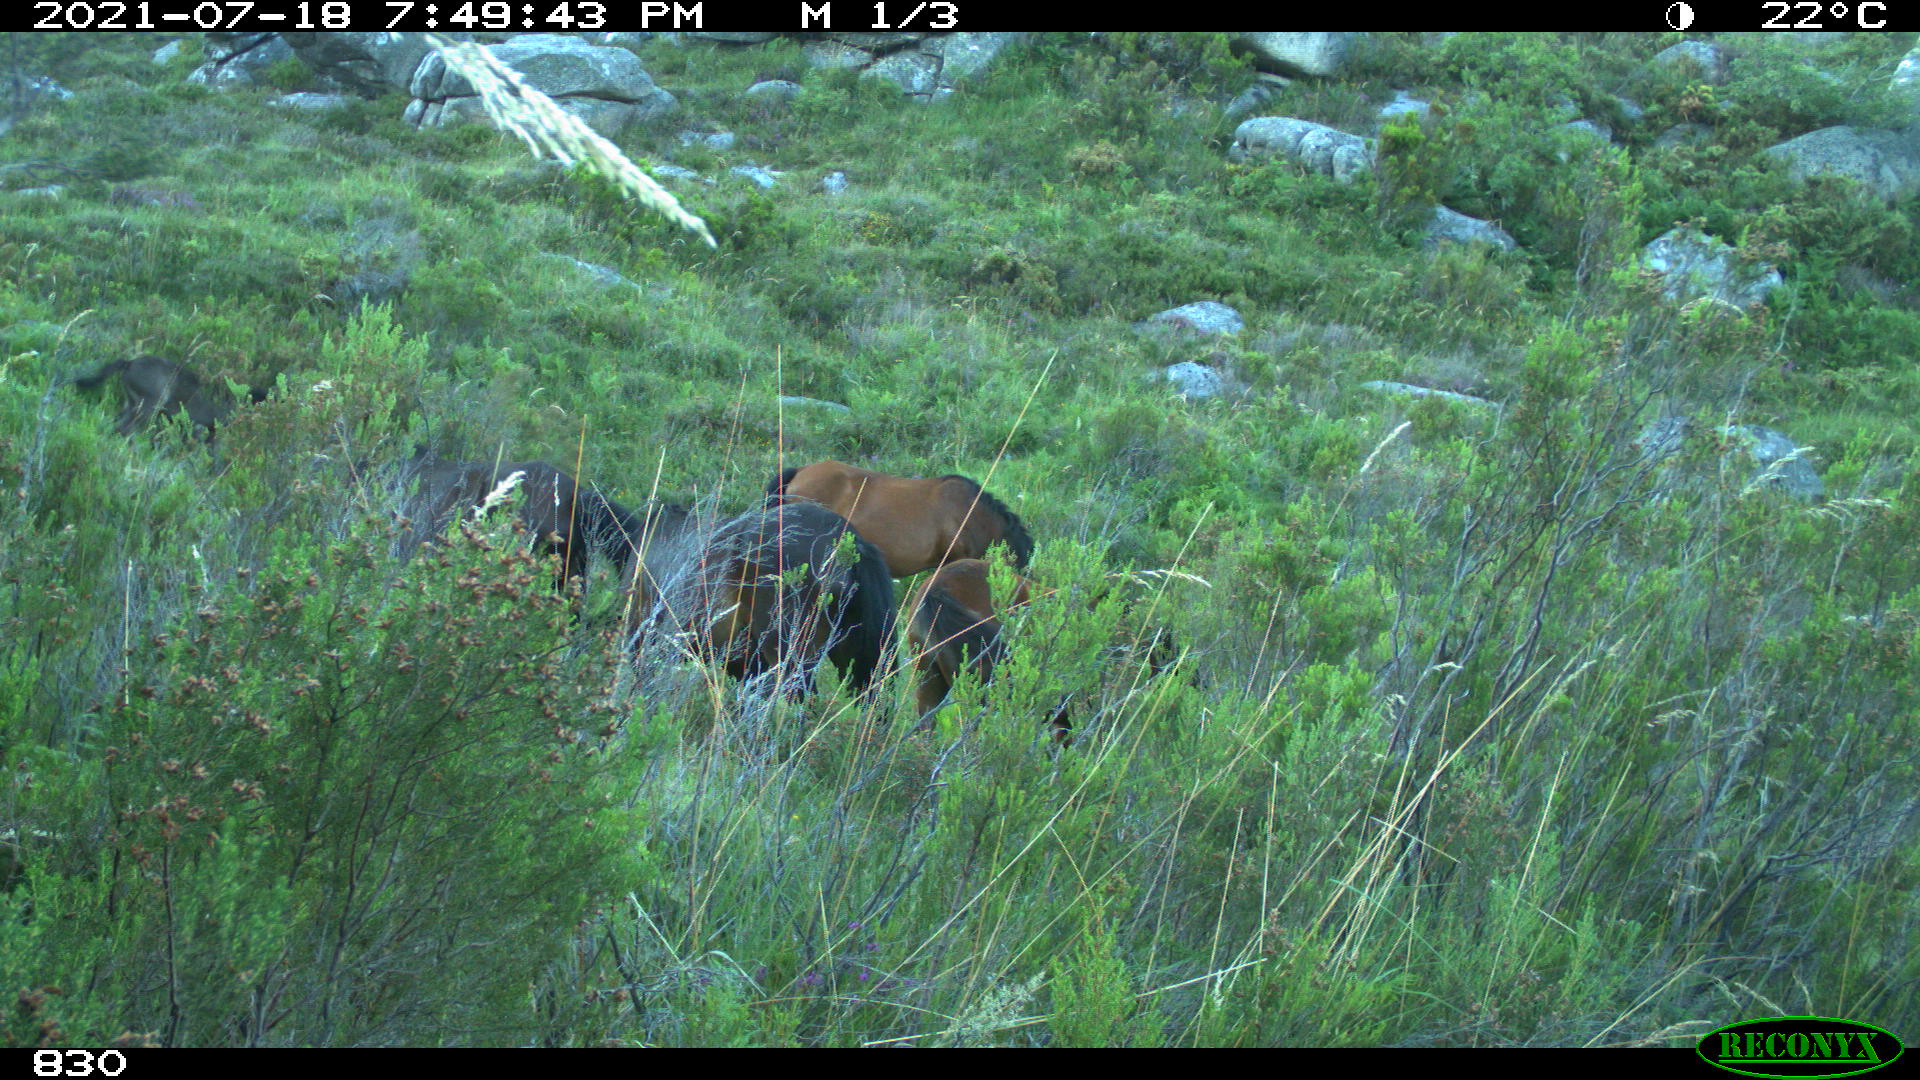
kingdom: Animalia
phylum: Chordata
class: Mammalia
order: Perissodactyla
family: Equidae
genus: Equus
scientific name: Equus caballus
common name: Horse
